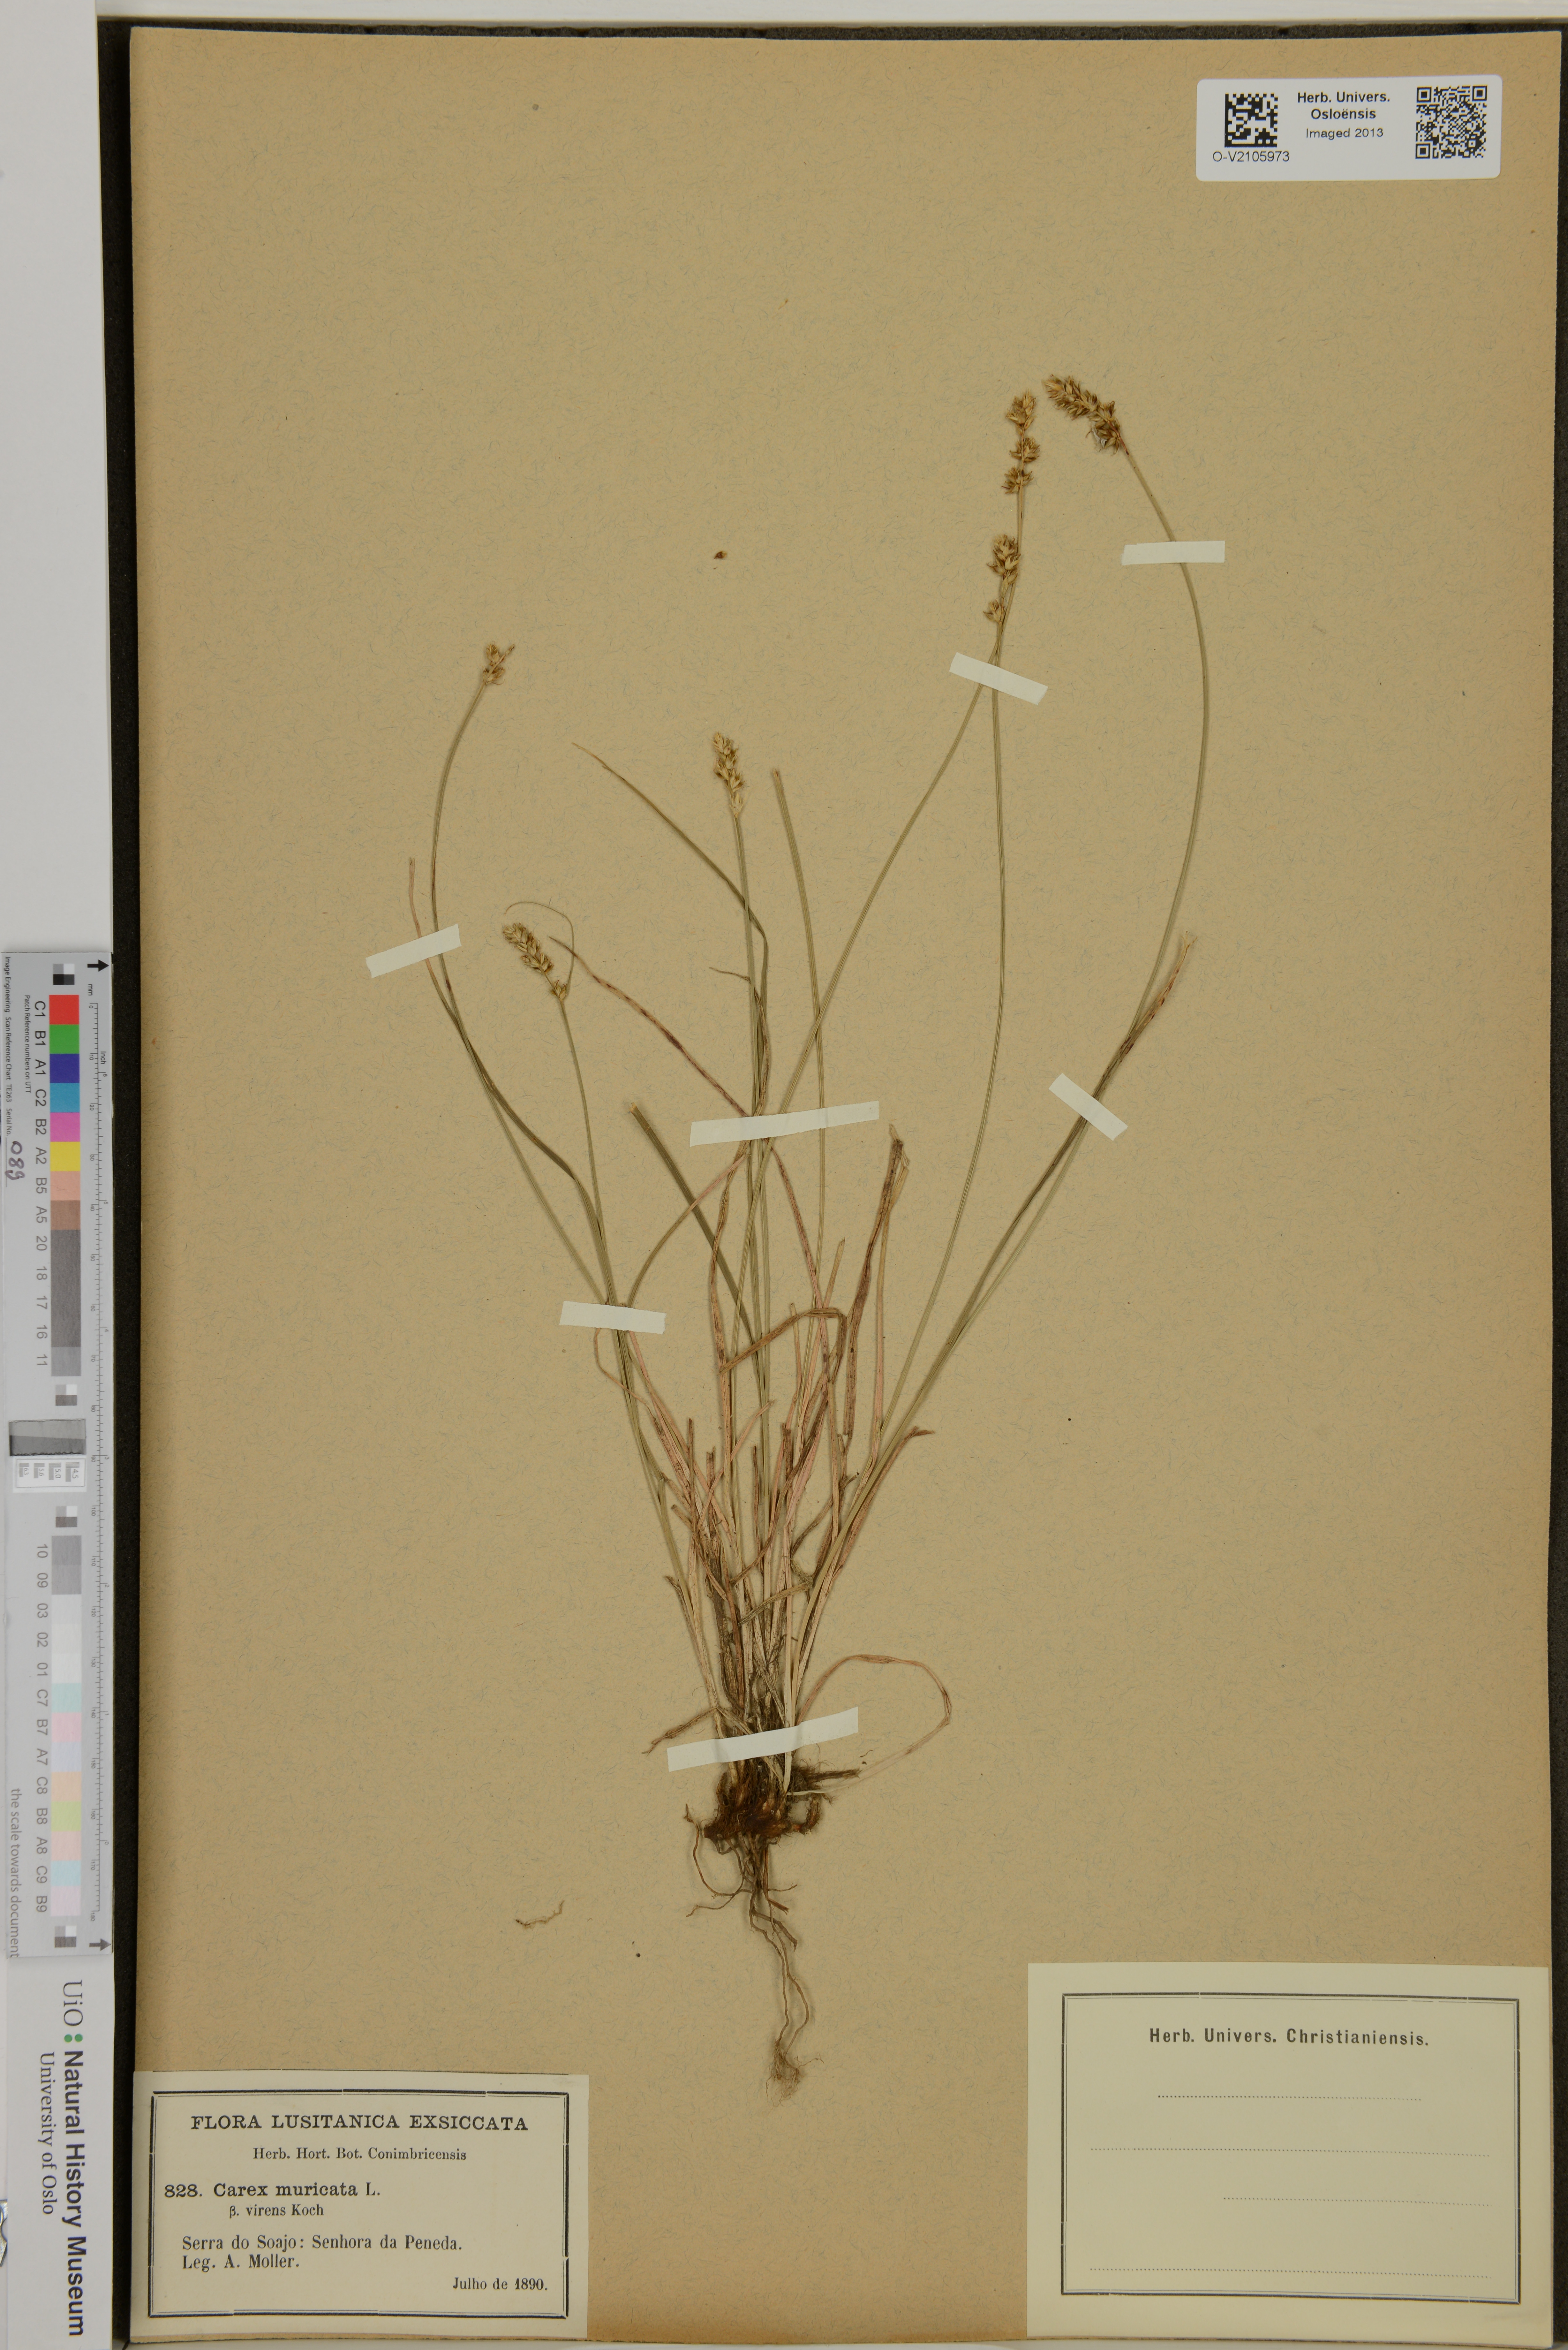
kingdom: Plantae
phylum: Tracheophyta
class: Liliopsida
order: Poales
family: Cyperaceae
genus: Carex
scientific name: Carex muricata
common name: Rough sedge
